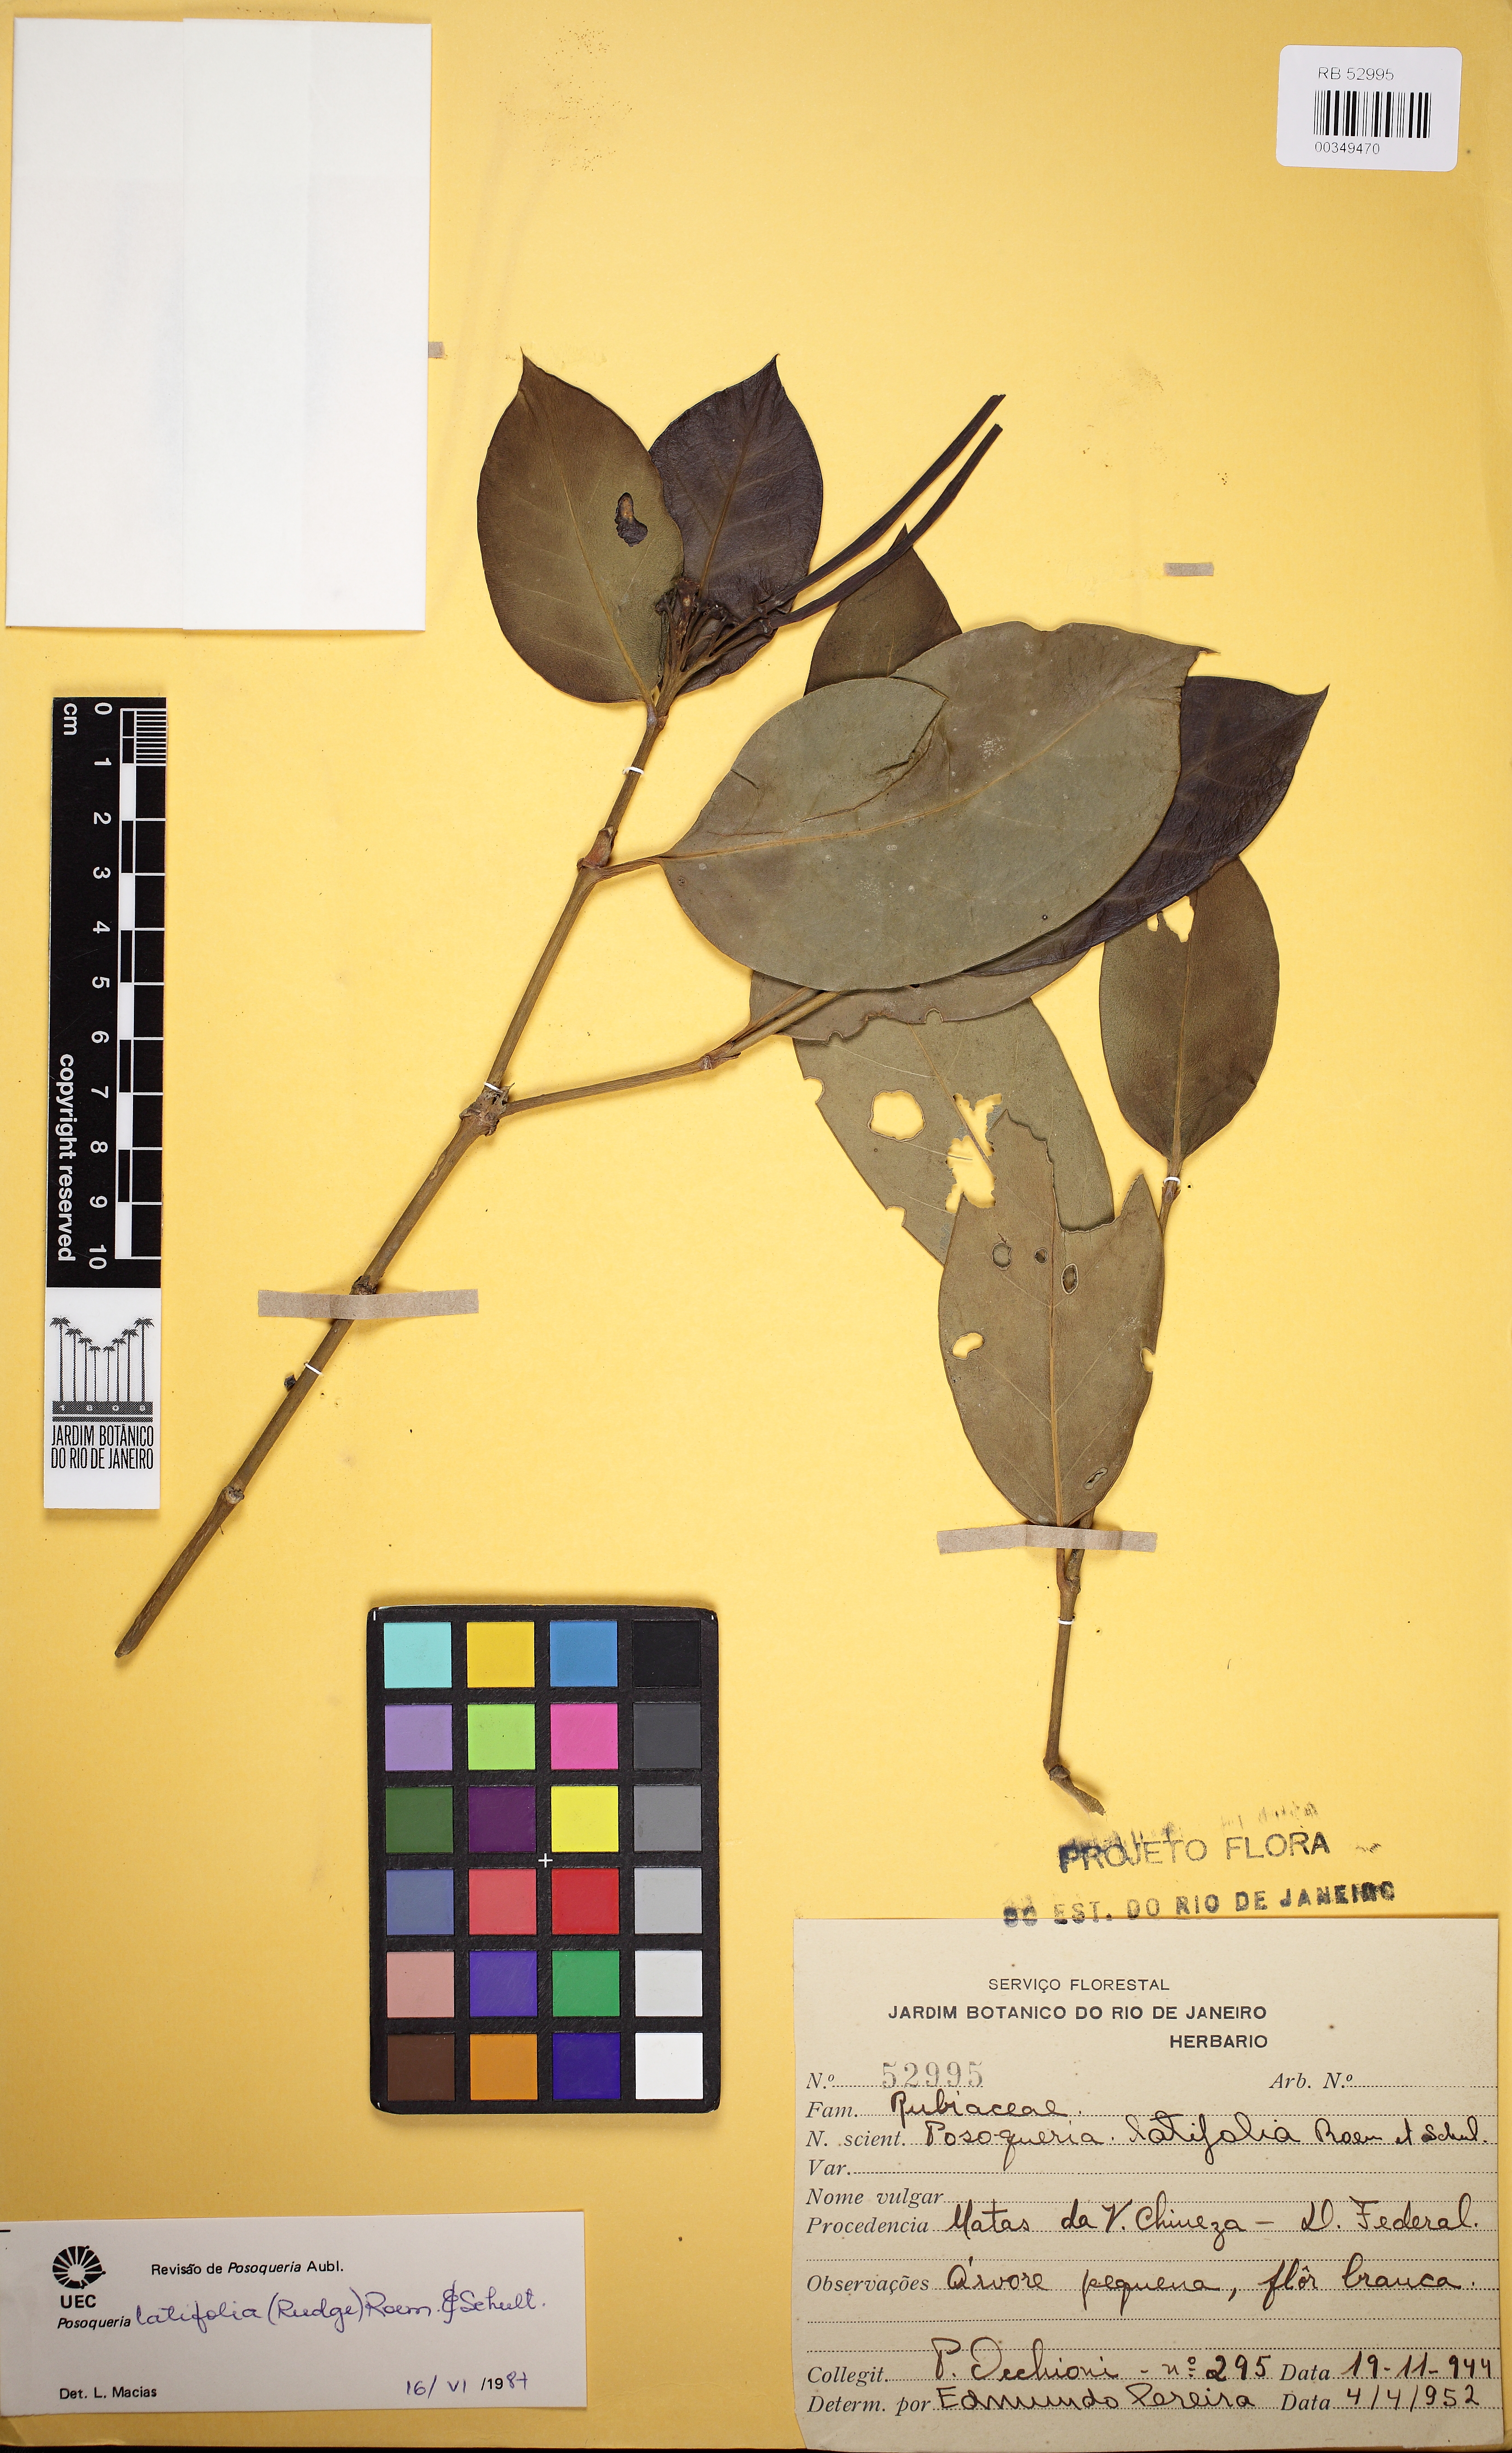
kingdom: Plantae
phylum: Tracheophyta
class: Magnoliopsida
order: Gentianales
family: Rubiaceae
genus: Posoqueria
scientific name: Posoqueria latifolia
